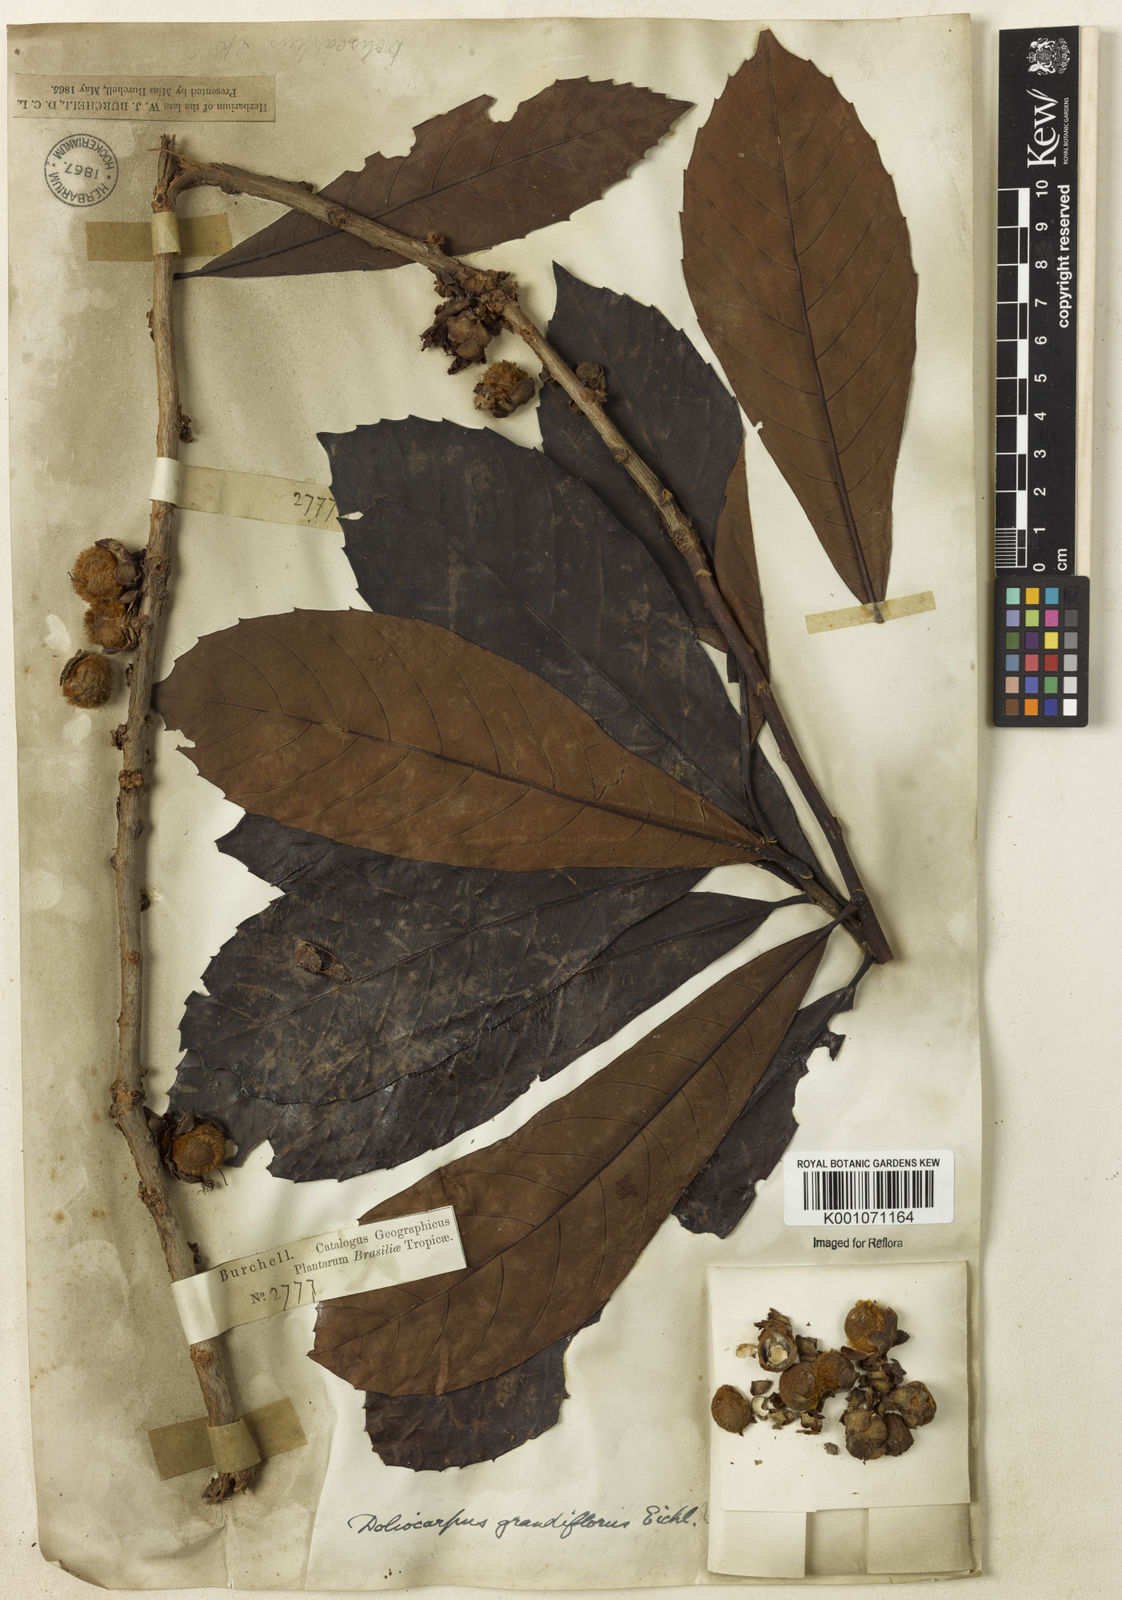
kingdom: Plantae
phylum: Tracheophyta
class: Magnoliopsida
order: Dilleniales
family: Dilleniaceae
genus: Doliocarpus
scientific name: Doliocarpus grandiflorus
